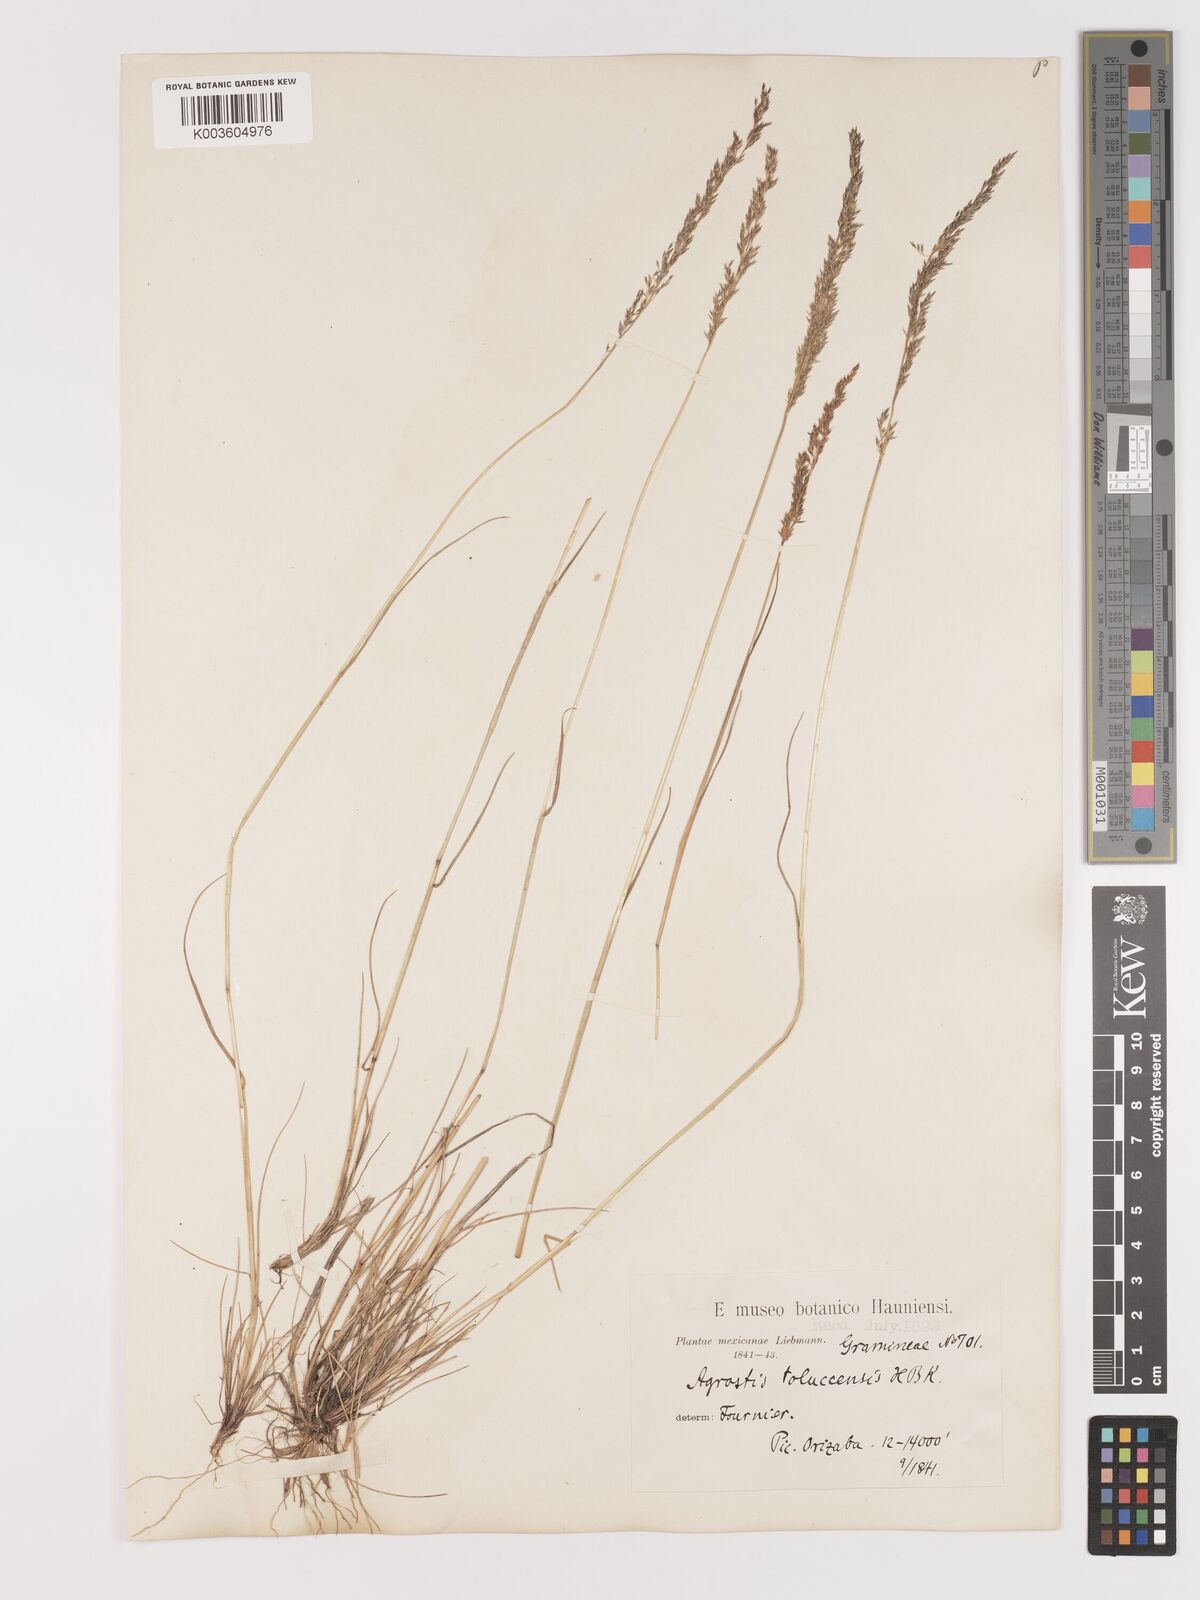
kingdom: Plantae
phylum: Tracheophyta
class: Liliopsida
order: Poales
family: Poaceae
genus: Agrostis
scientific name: Agrostis tolucensis
